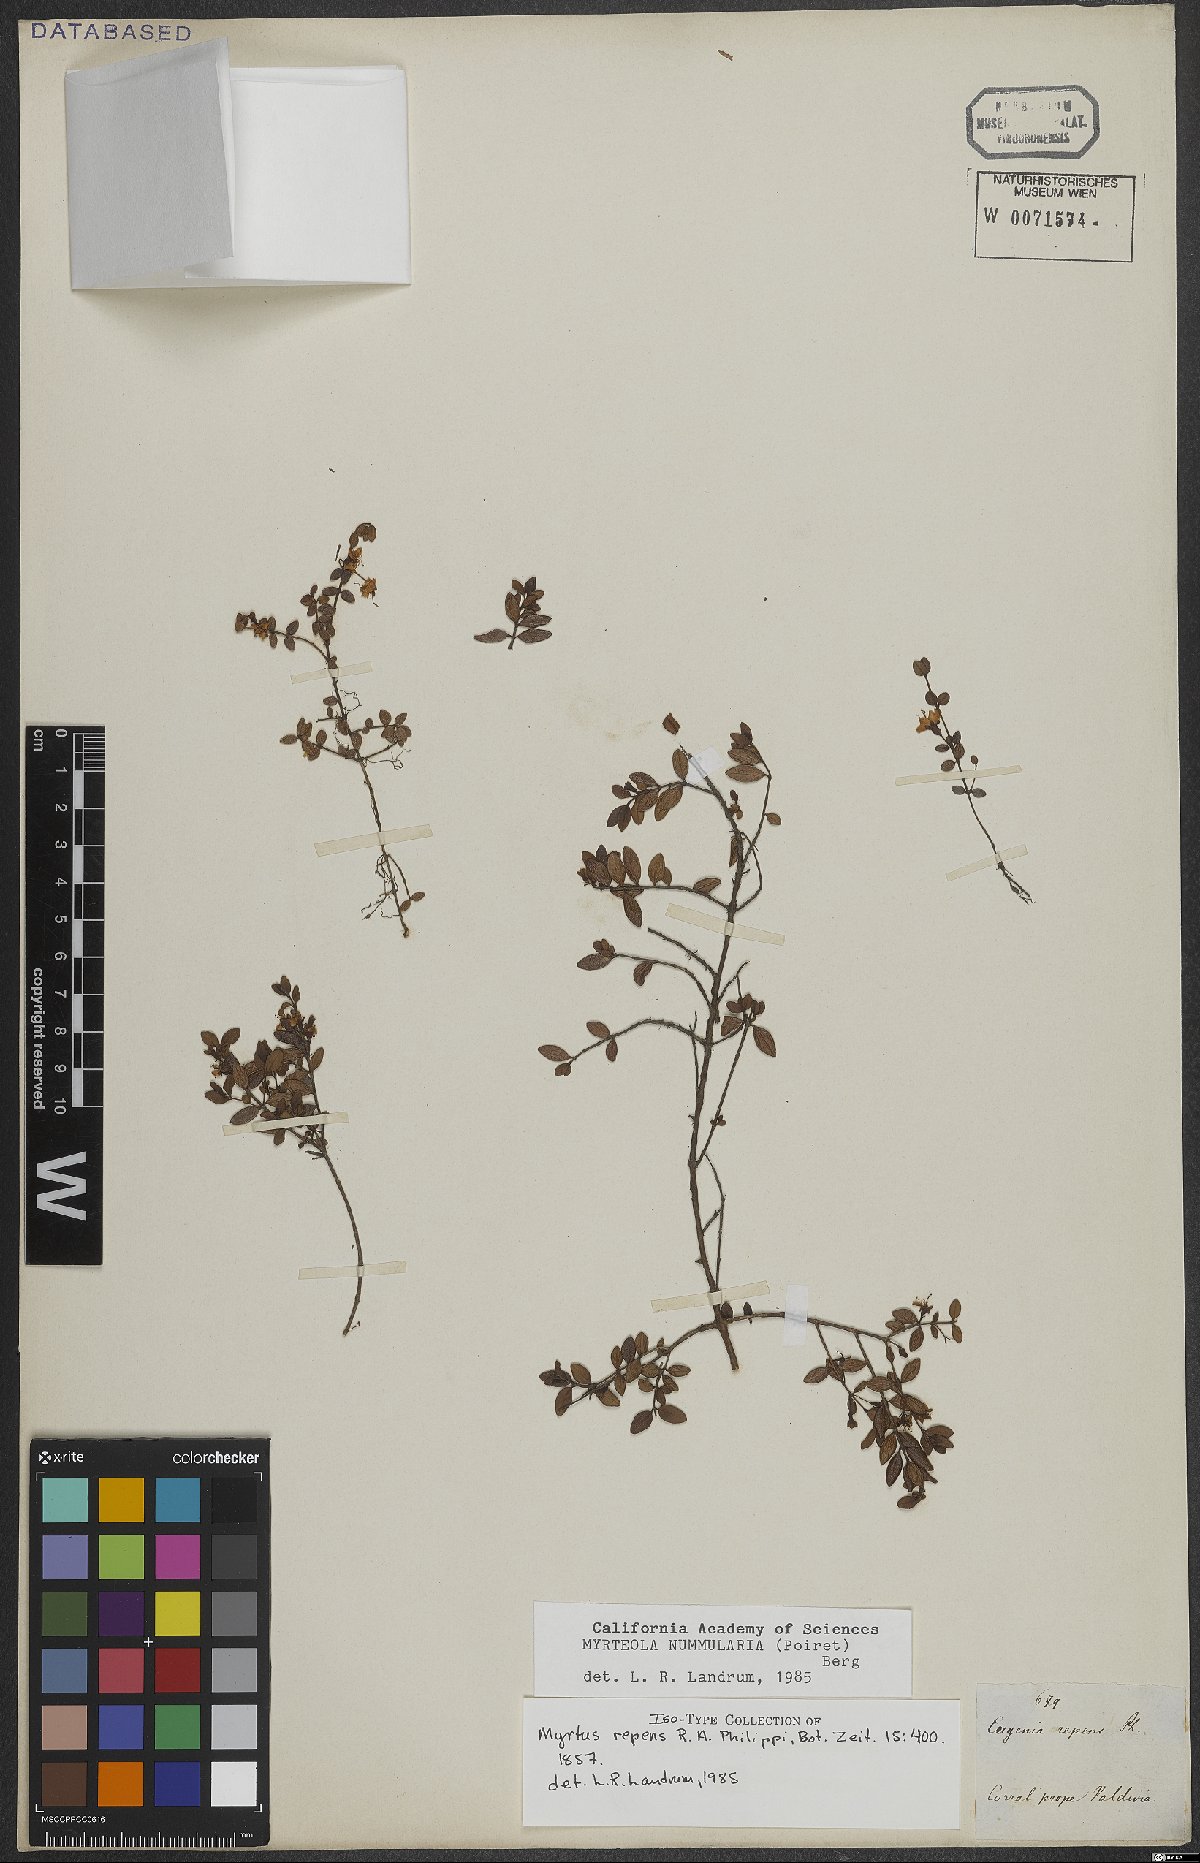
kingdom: Plantae
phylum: Tracheophyta
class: Magnoliopsida
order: Myrtales
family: Myrtaceae
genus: Myrteola
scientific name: Myrteola nummularia
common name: Cranberry-myrtle
